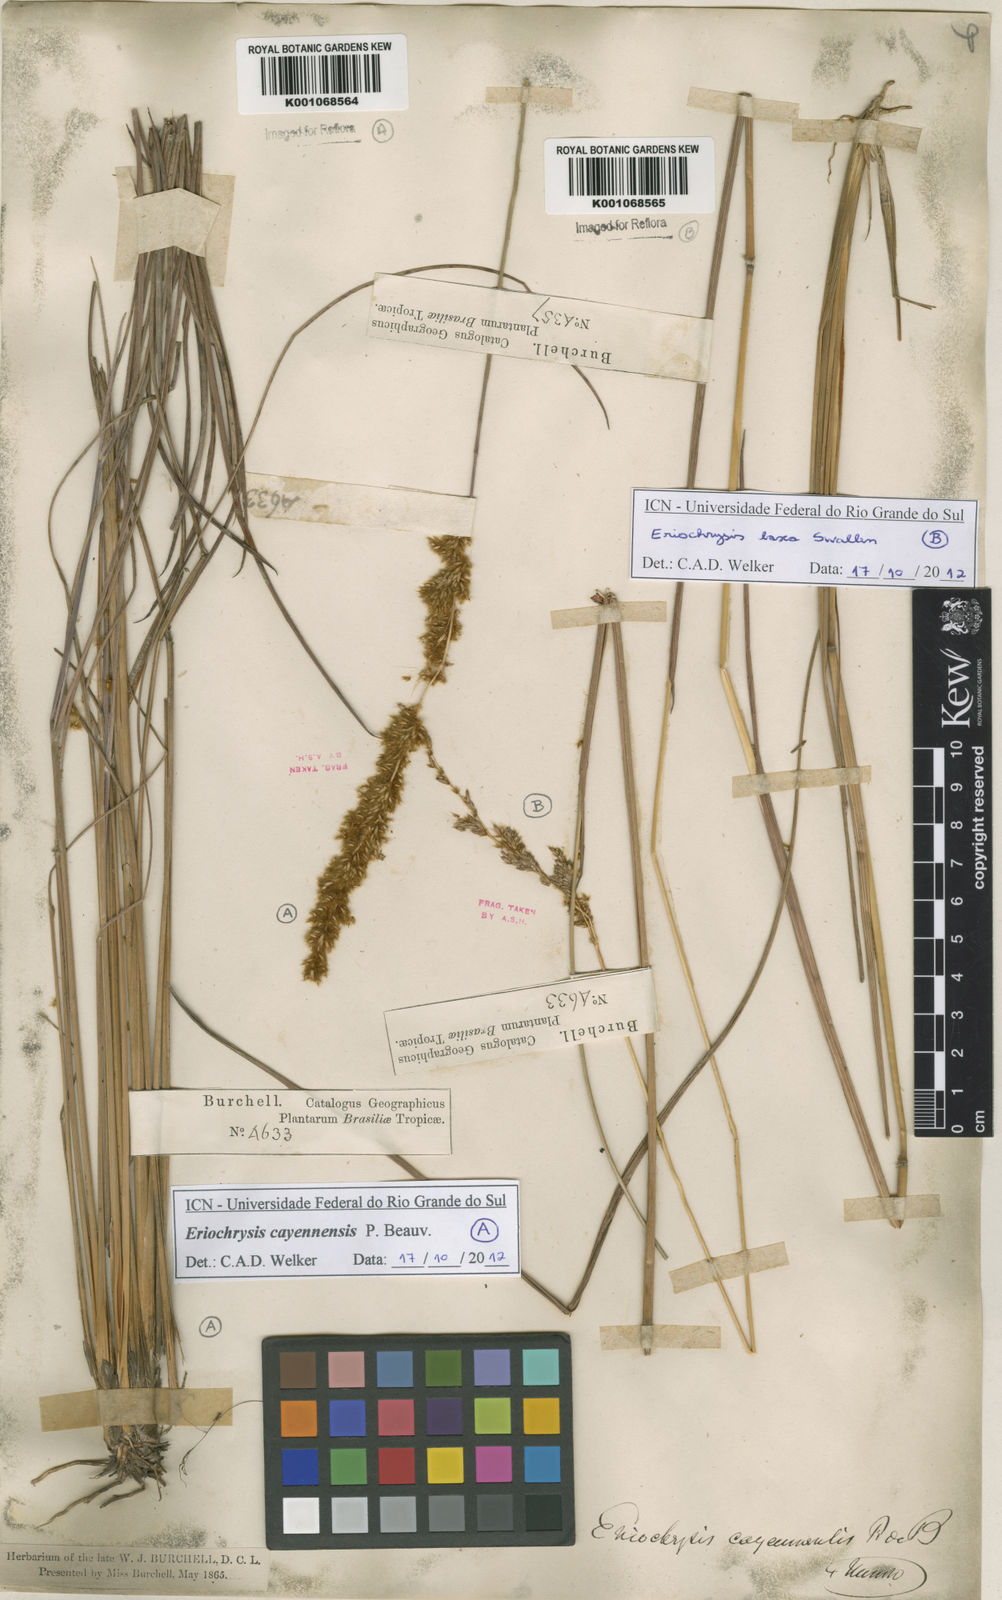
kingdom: Plantae
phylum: Tracheophyta
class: Liliopsida
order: Poales
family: Poaceae
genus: Eriochrysis
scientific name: Eriochrysis laxa
